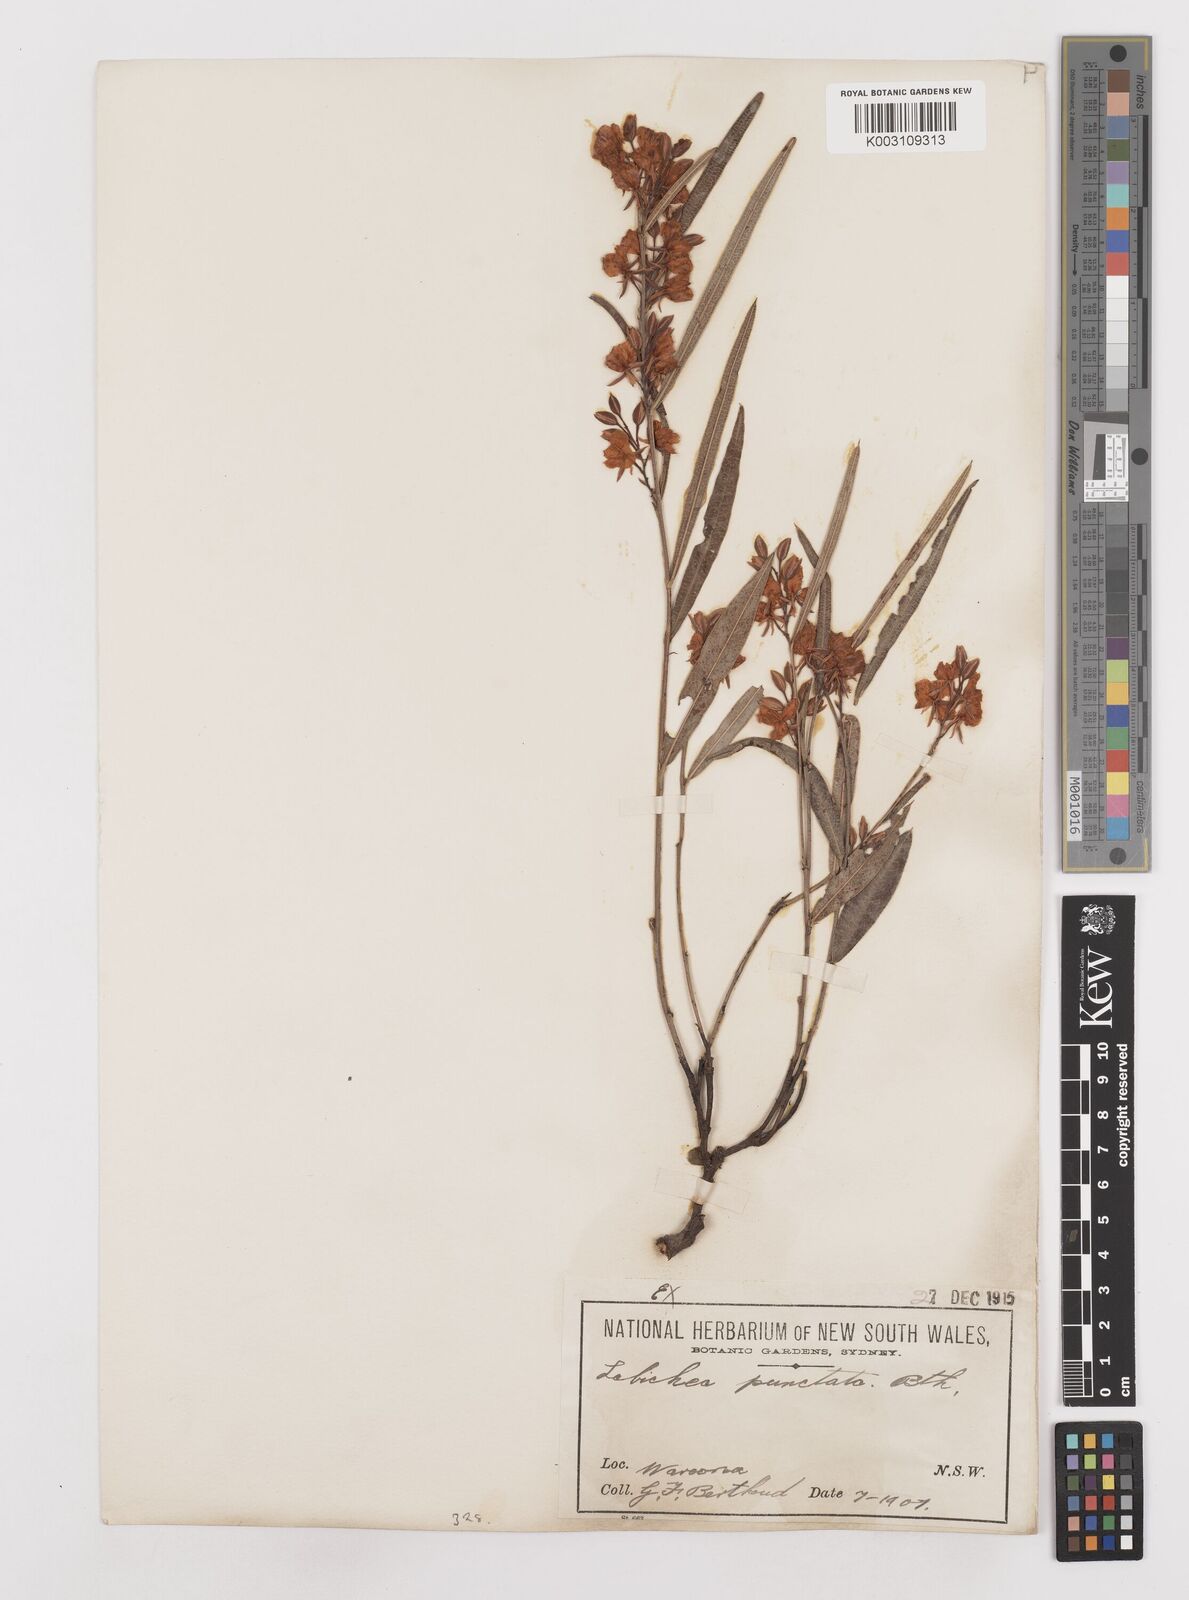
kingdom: Plantae
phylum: Tracheophyta
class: Magnoliopsida
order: Fabales
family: Fabaceae
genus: Labichea
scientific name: Labichea punctata
